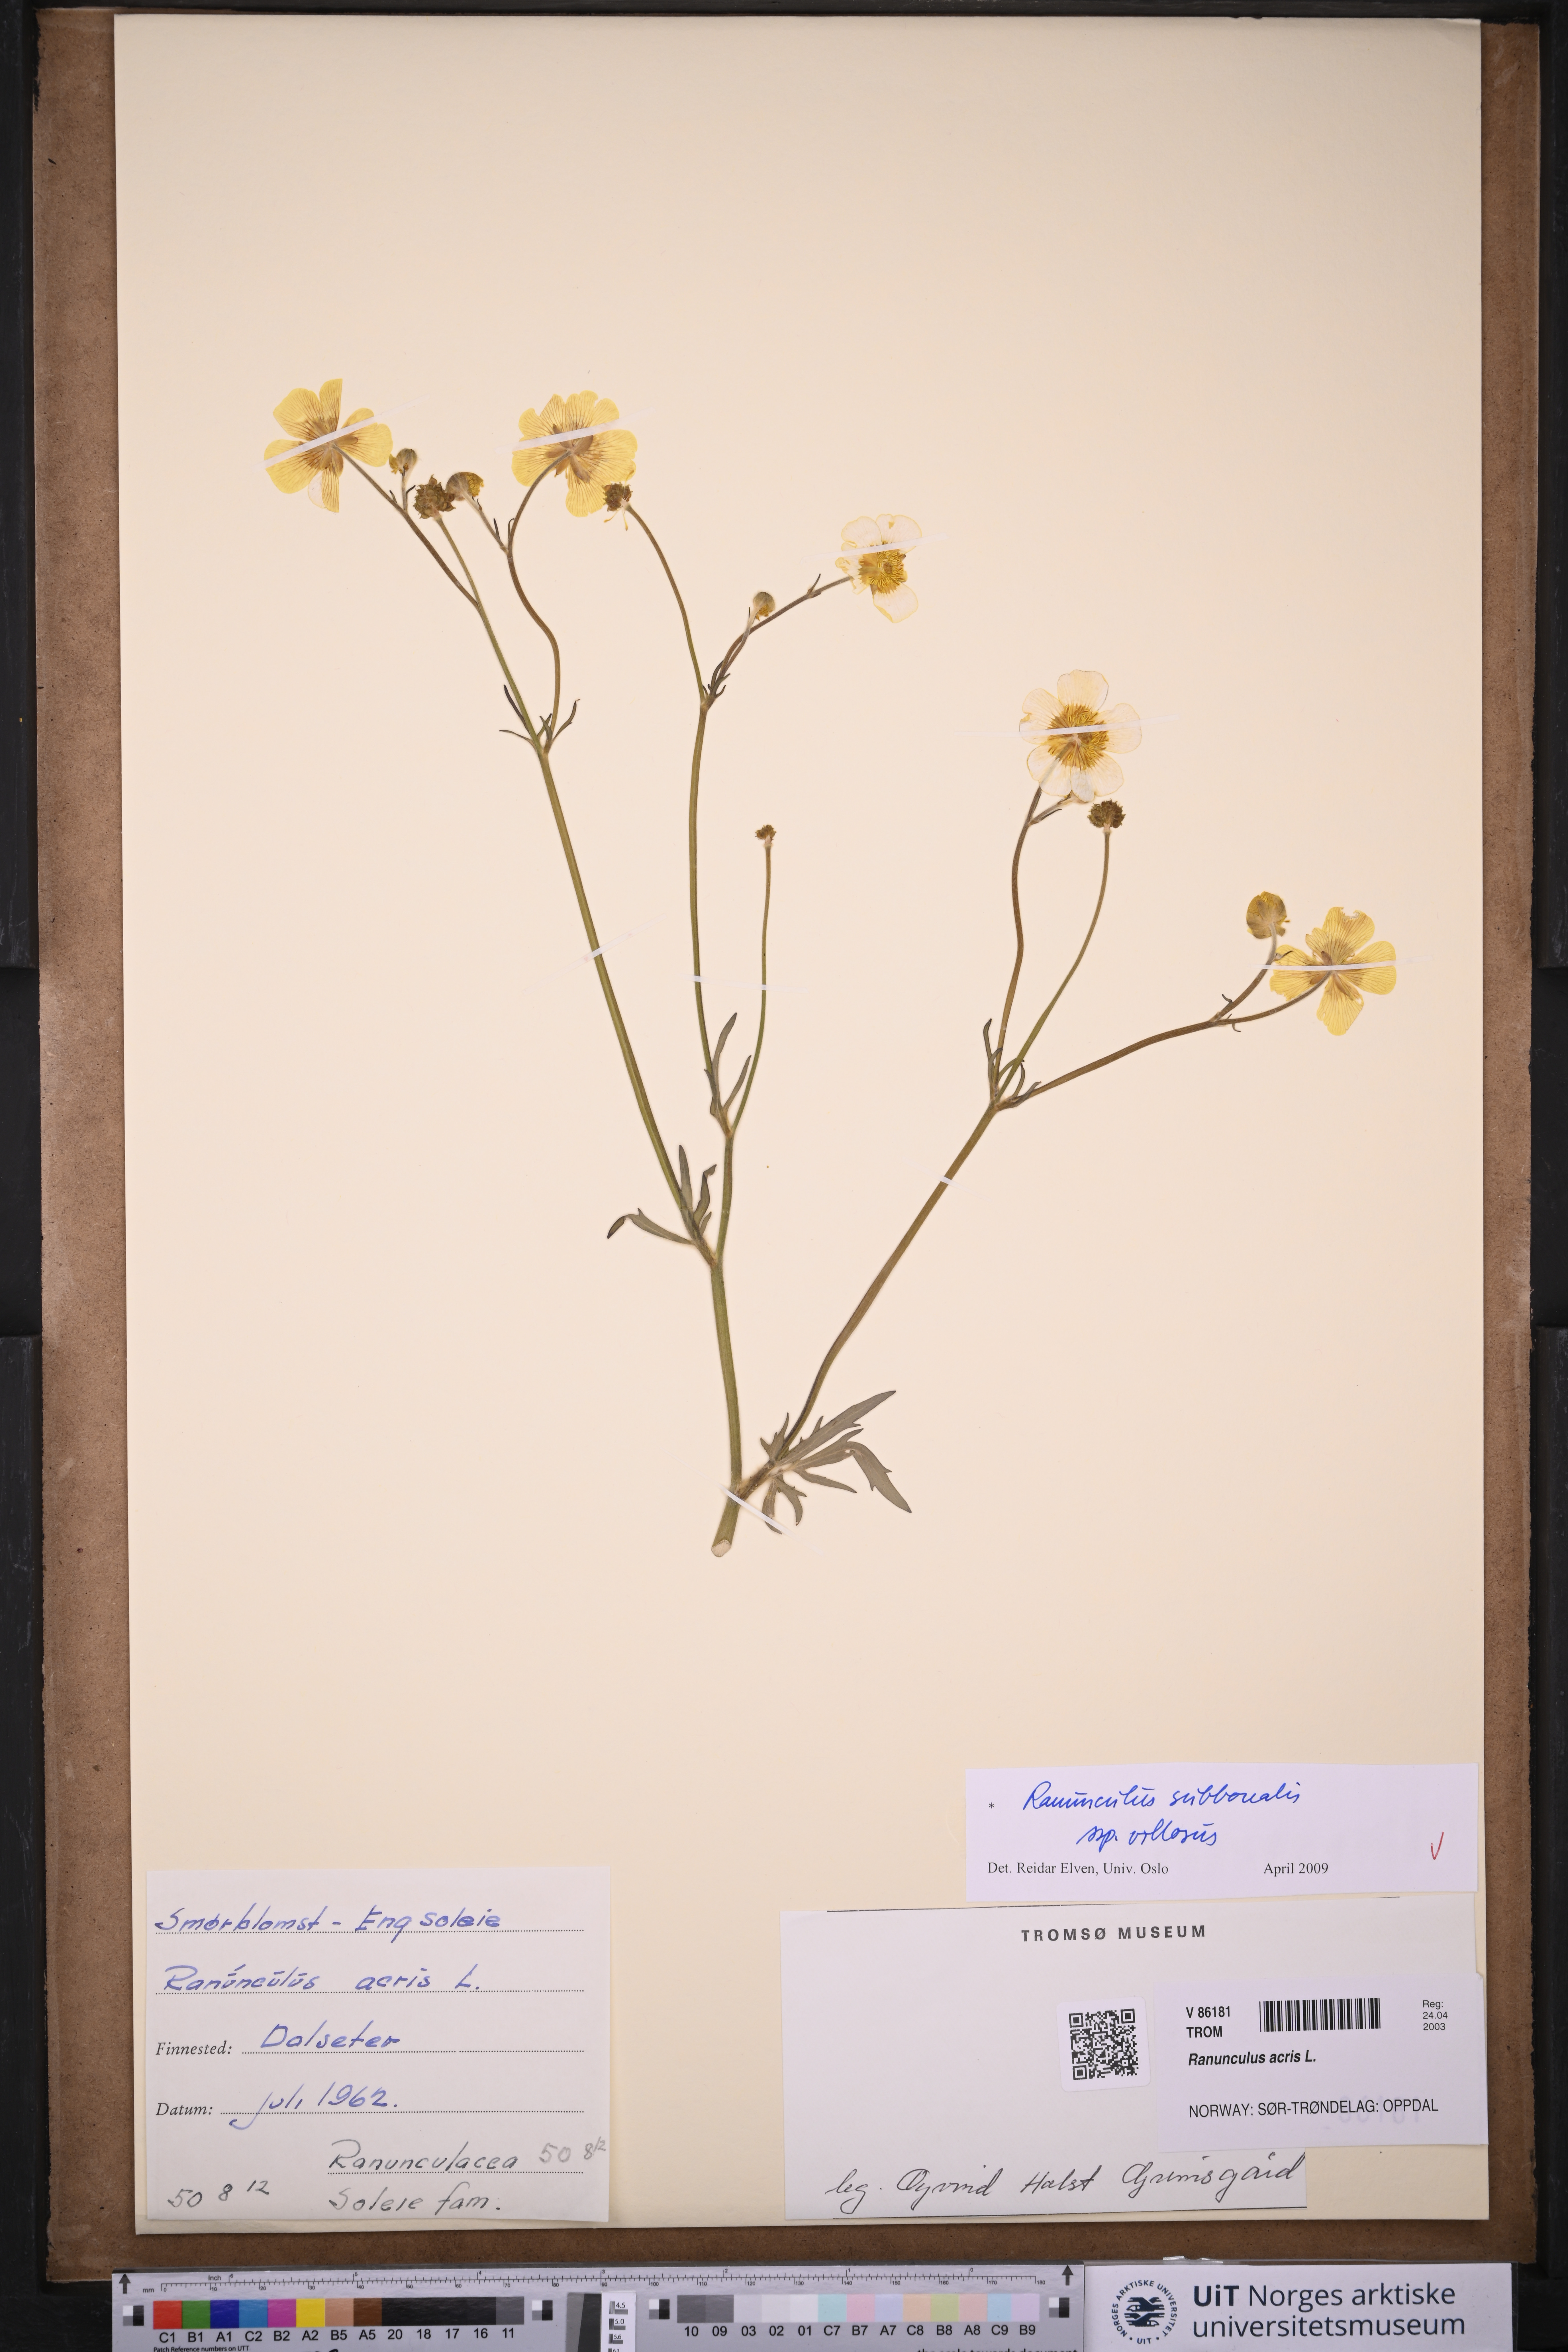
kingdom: Plantae
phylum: Tracheophyta
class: Magnoliopsida
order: Ranunculales
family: Ranunculaceae
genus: Ranunculus
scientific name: Ranunculus propinquus
